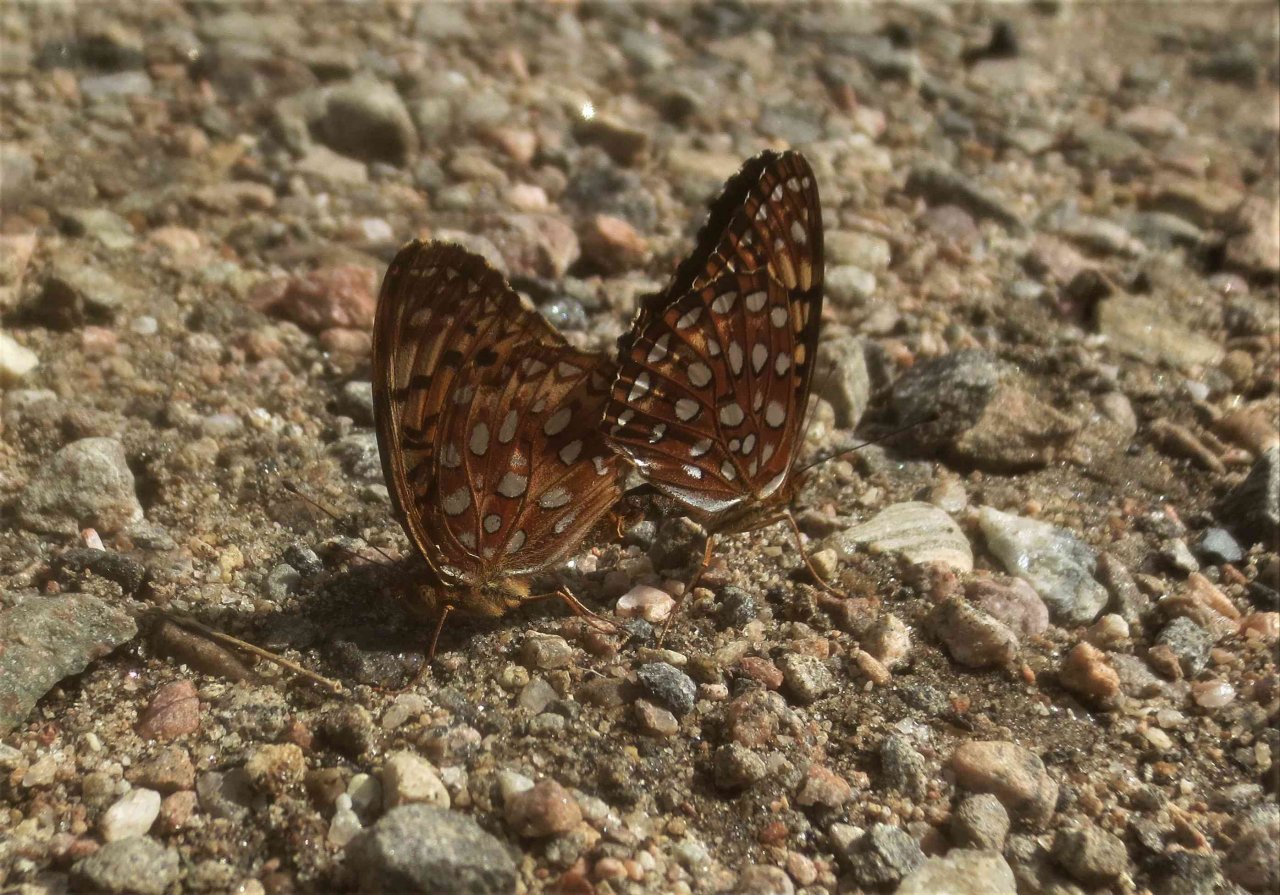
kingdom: Animalia
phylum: Arthropoda
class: Insecta
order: Lepidoptera
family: Nymphalidae
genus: Speyeria
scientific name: Speyeria aphrodite
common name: Aphrodite Fritillary
